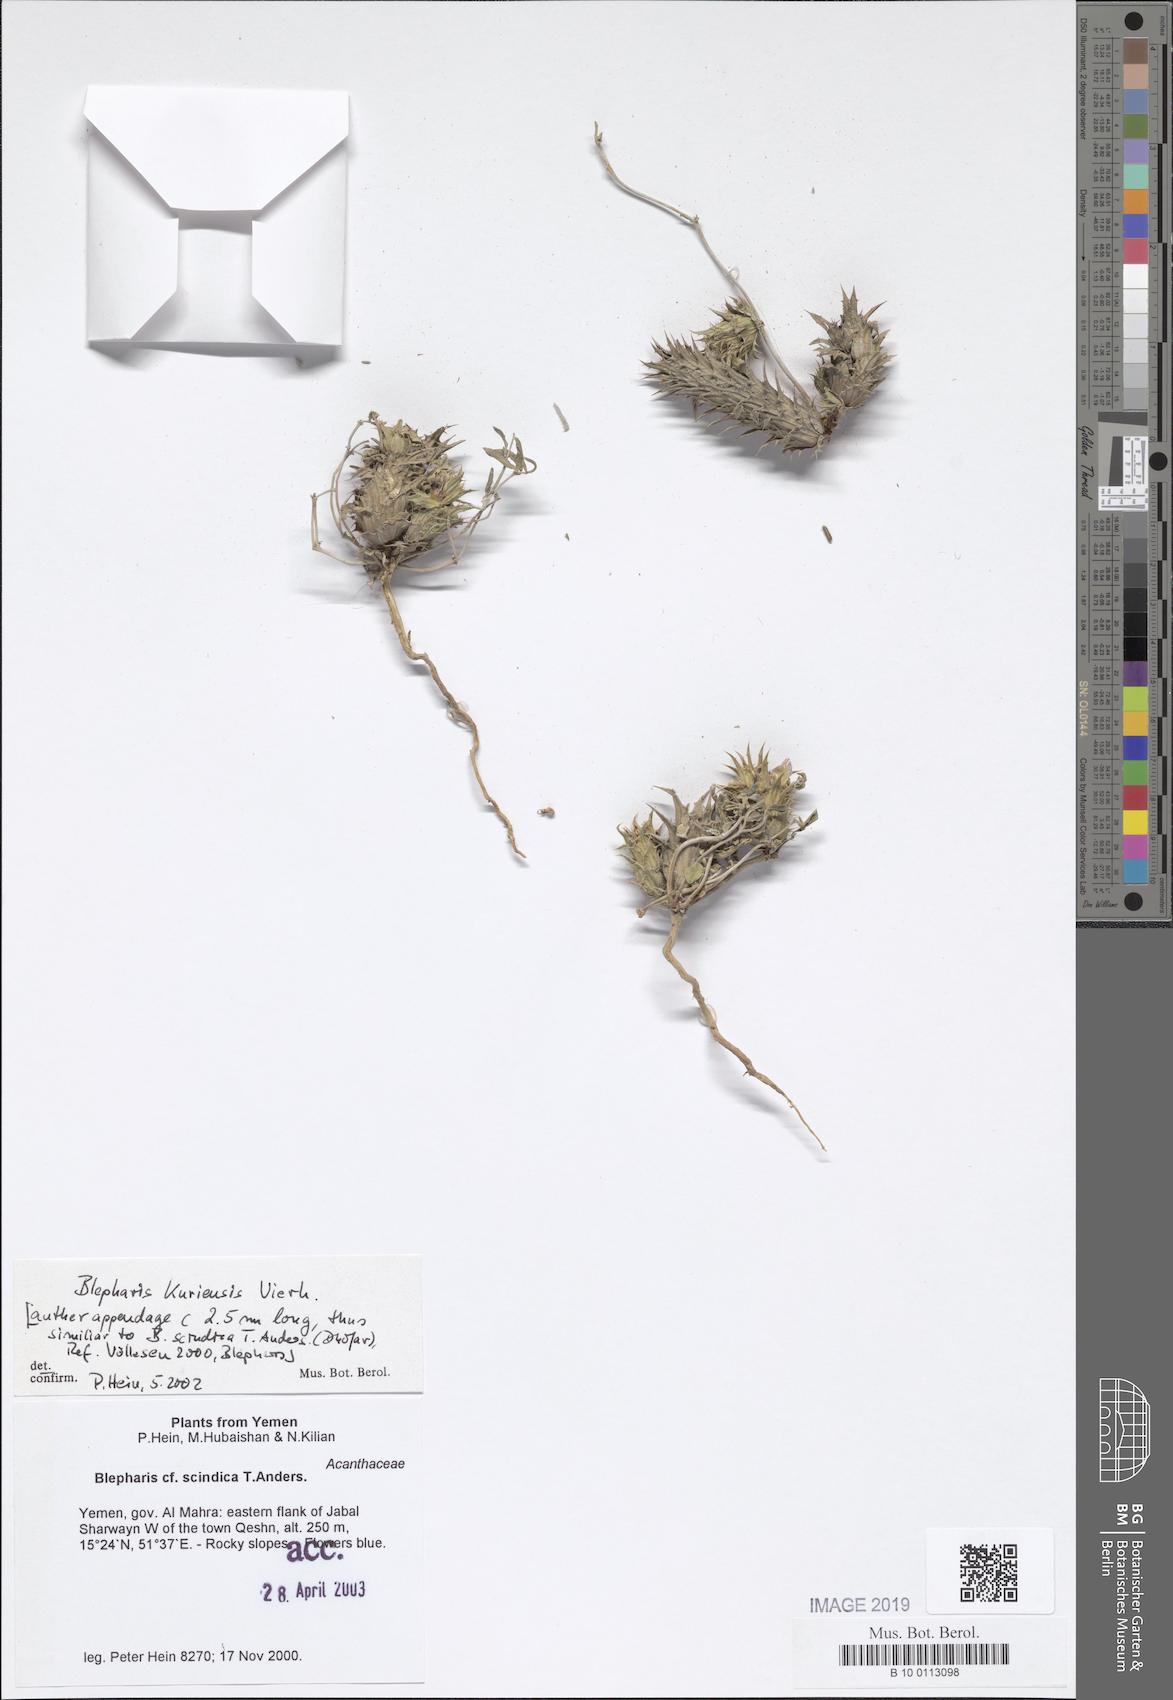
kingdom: Plantae
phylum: Tracheophyta
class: Magnoliopsida
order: Lamiales
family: Acanthaceae
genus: Blepharis
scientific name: Blepharis kuriensis
